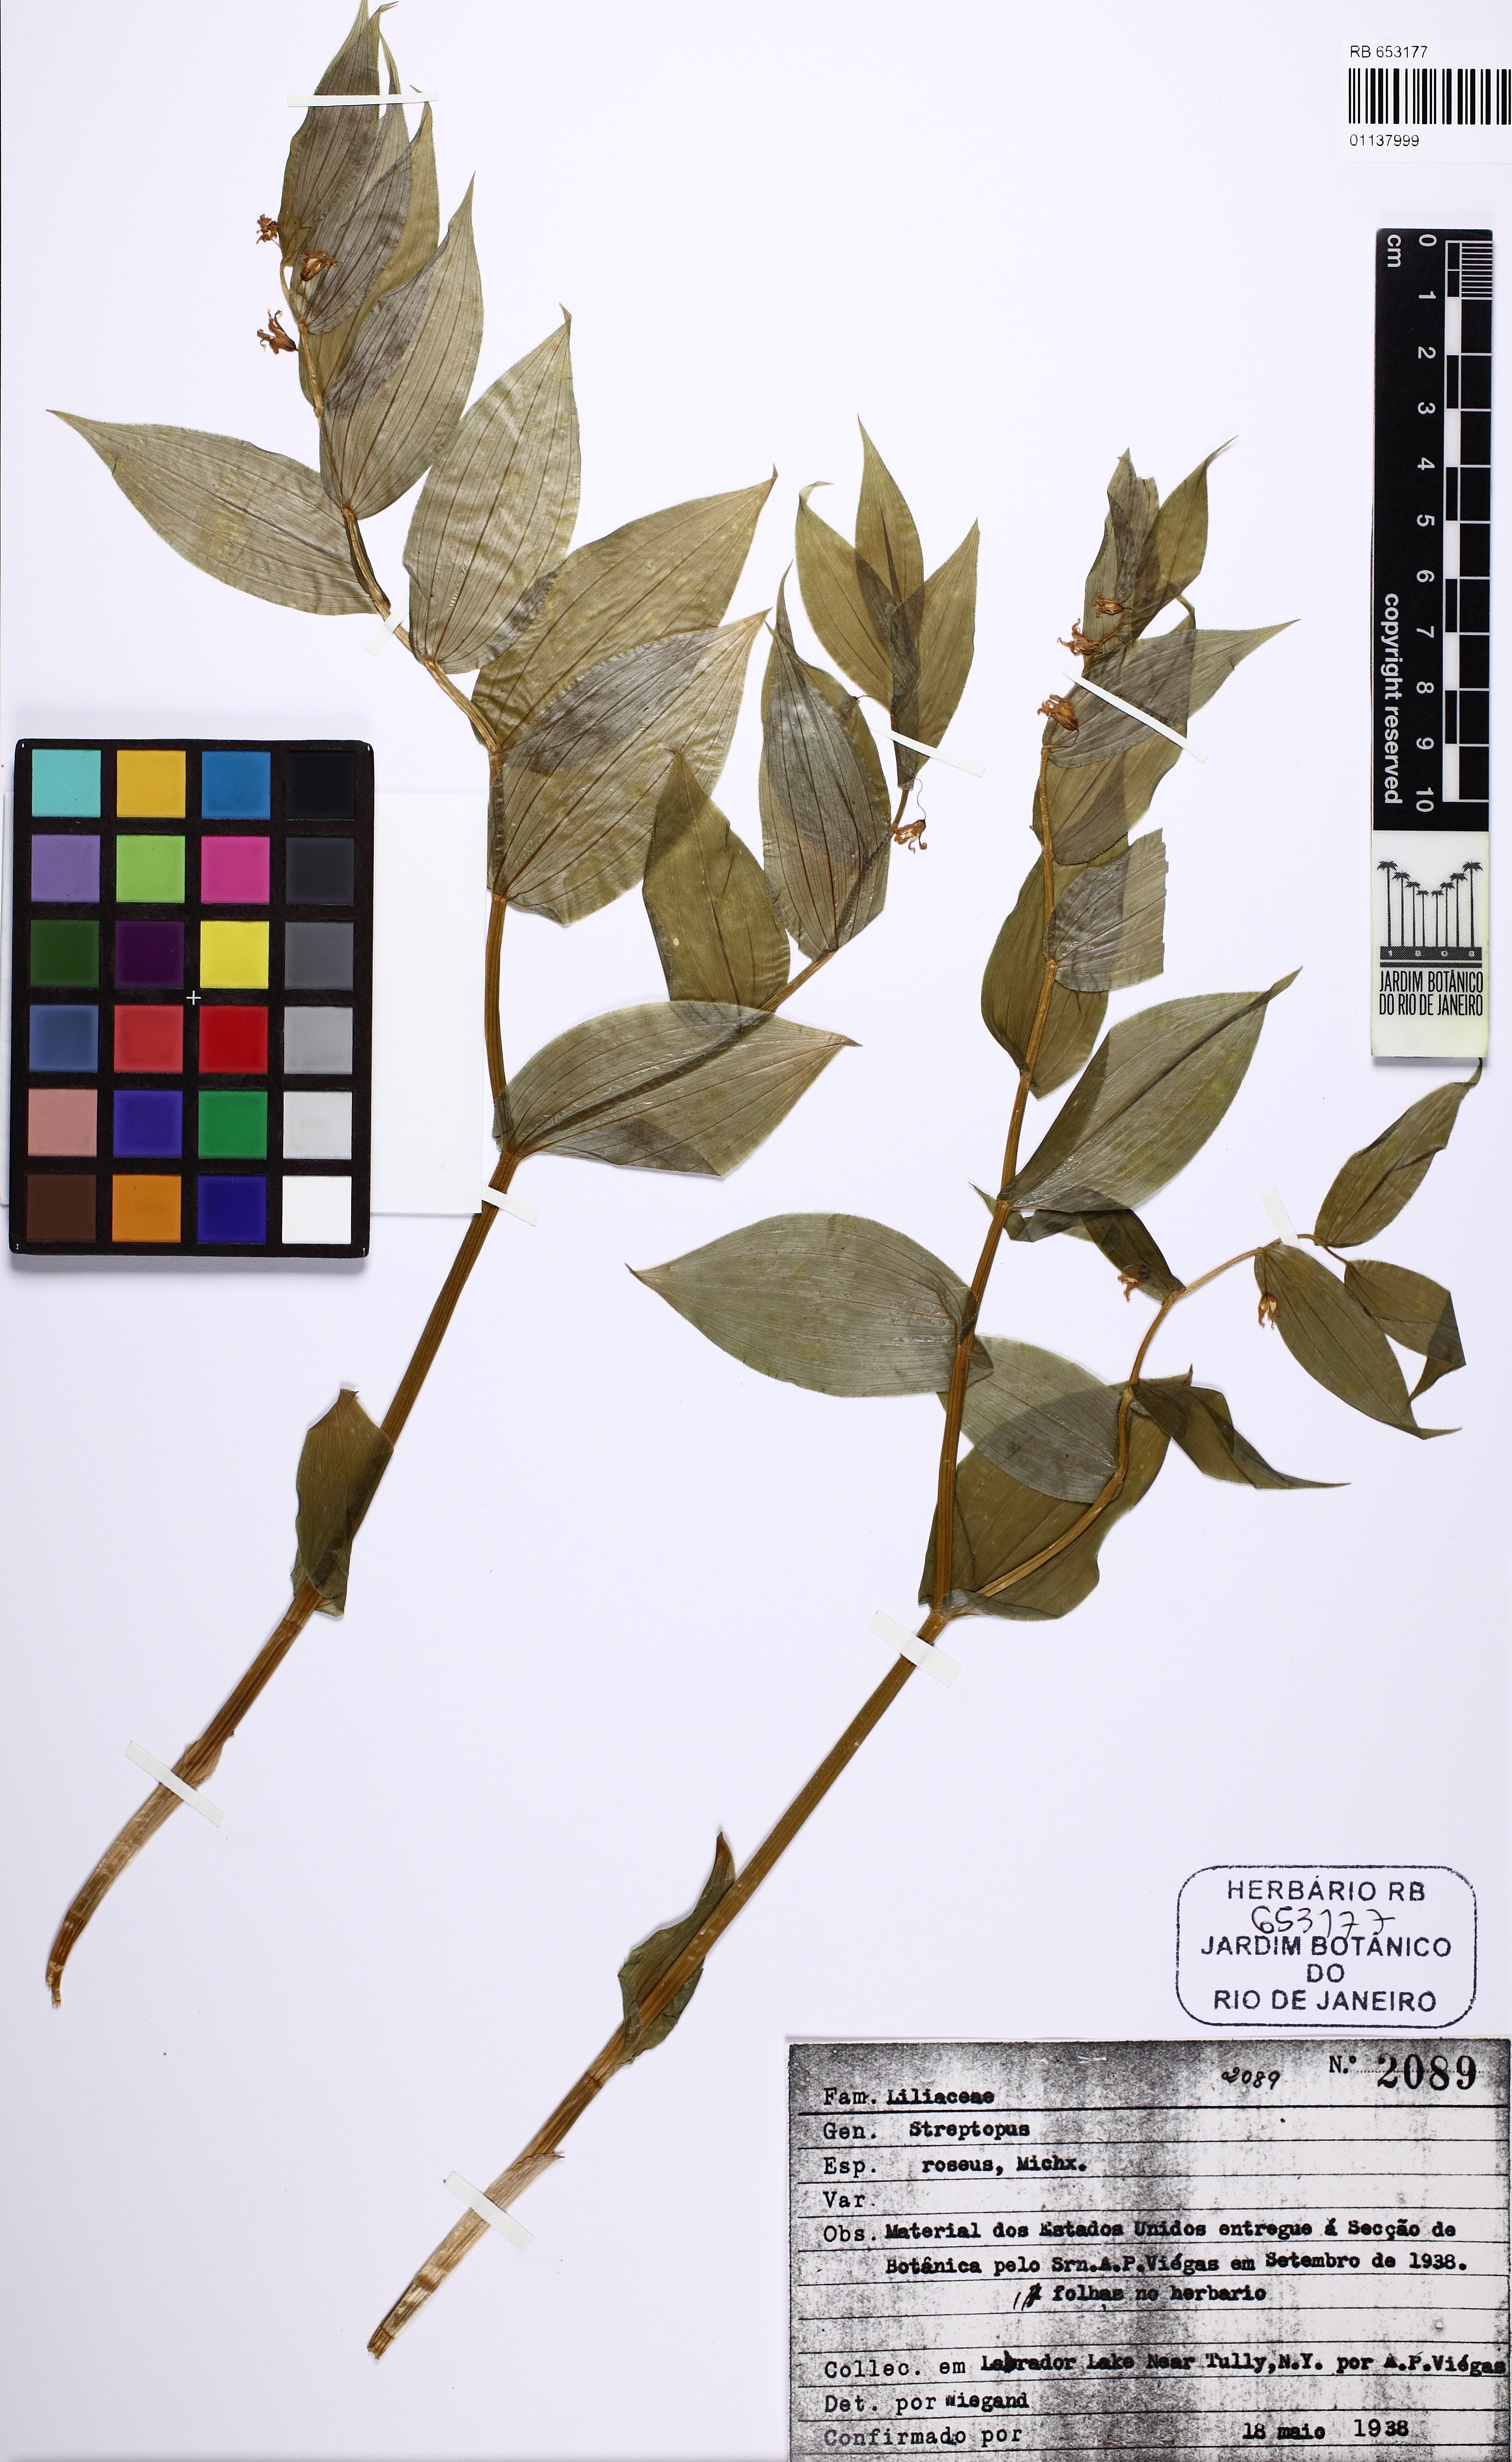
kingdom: Plantae
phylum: Tracheophyta
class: Liliopsida
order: Liliales
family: Liliaceae
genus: Streptopus
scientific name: Streptopus lanceolatus
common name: Rose mandarin
